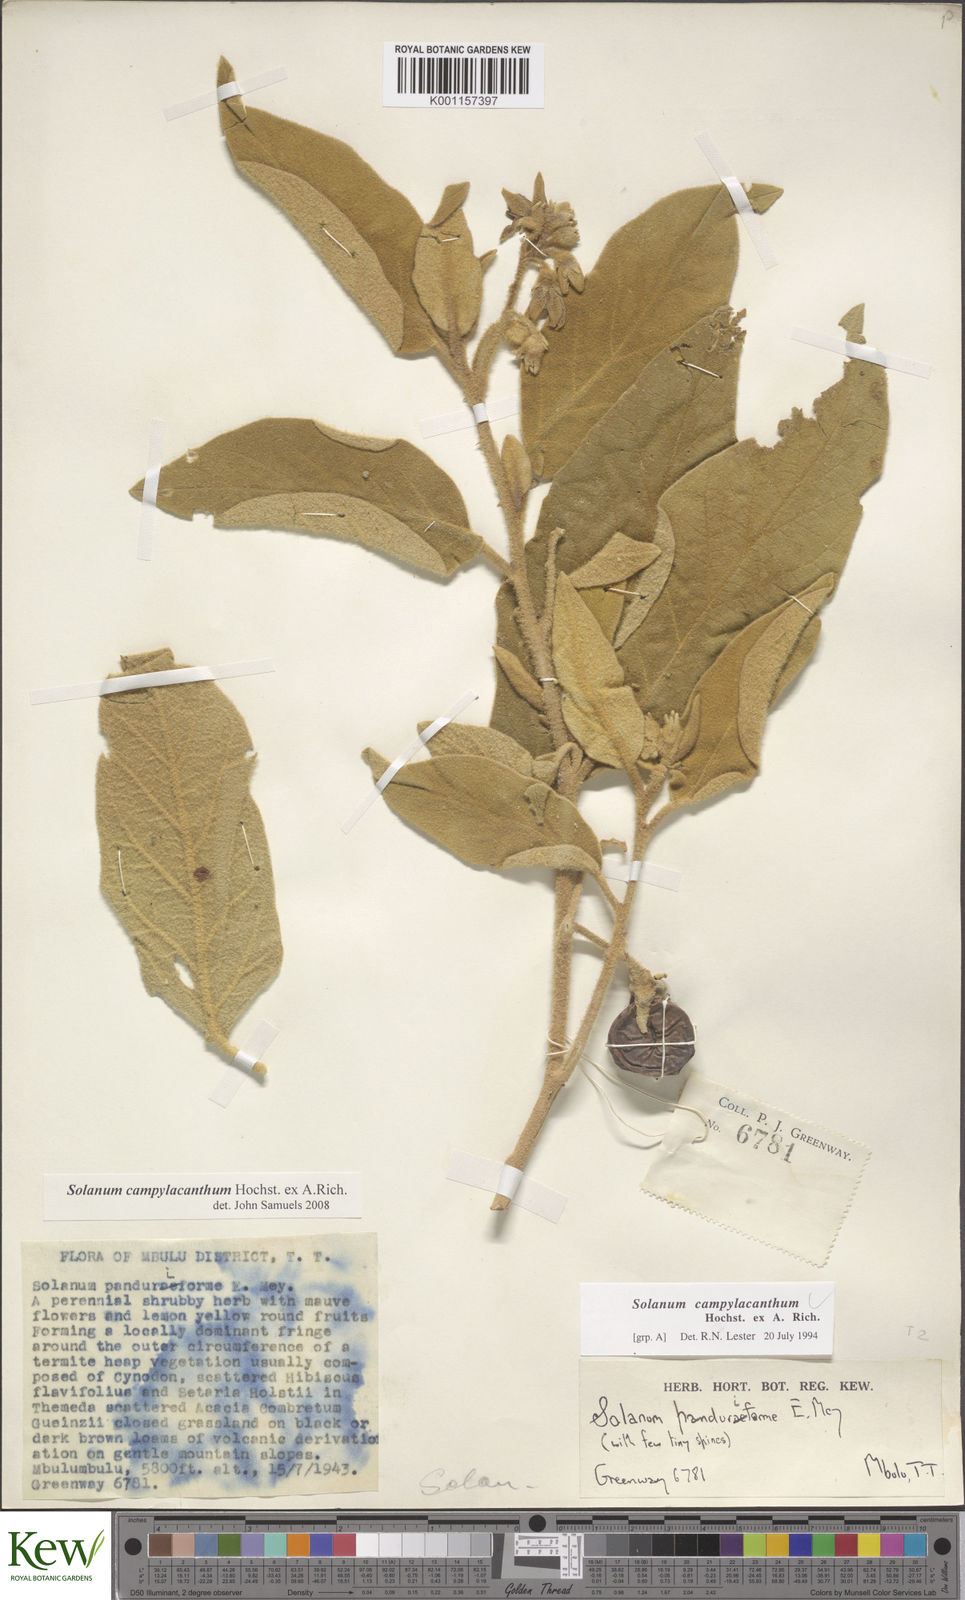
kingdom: Plantae
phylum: Tracheophyta
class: Magnoliopsida
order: Solanales
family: Solanaceae
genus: Solanum
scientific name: Solanum campylacanthum
